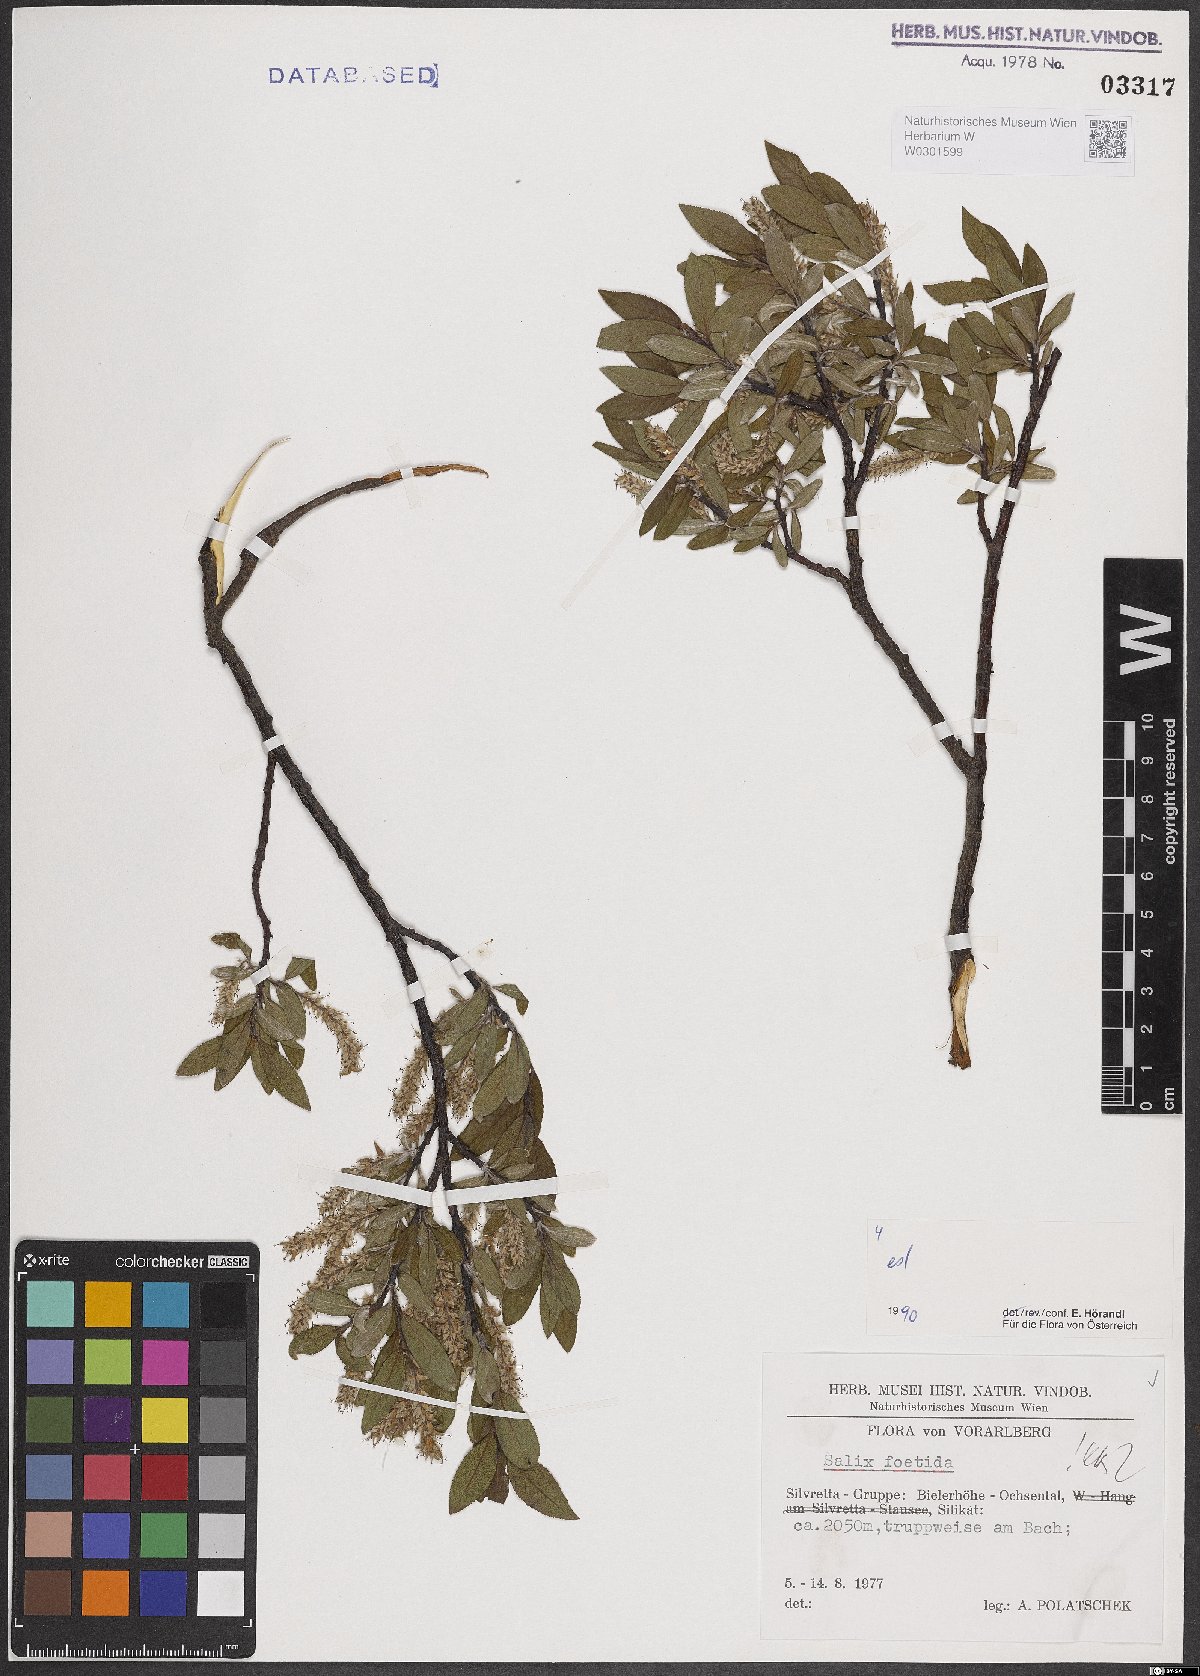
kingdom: Plantae
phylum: Tracheophyta
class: Magnoliopsida
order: Malpighiales
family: Salicaceae
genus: Salix
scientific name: Salix foetida
